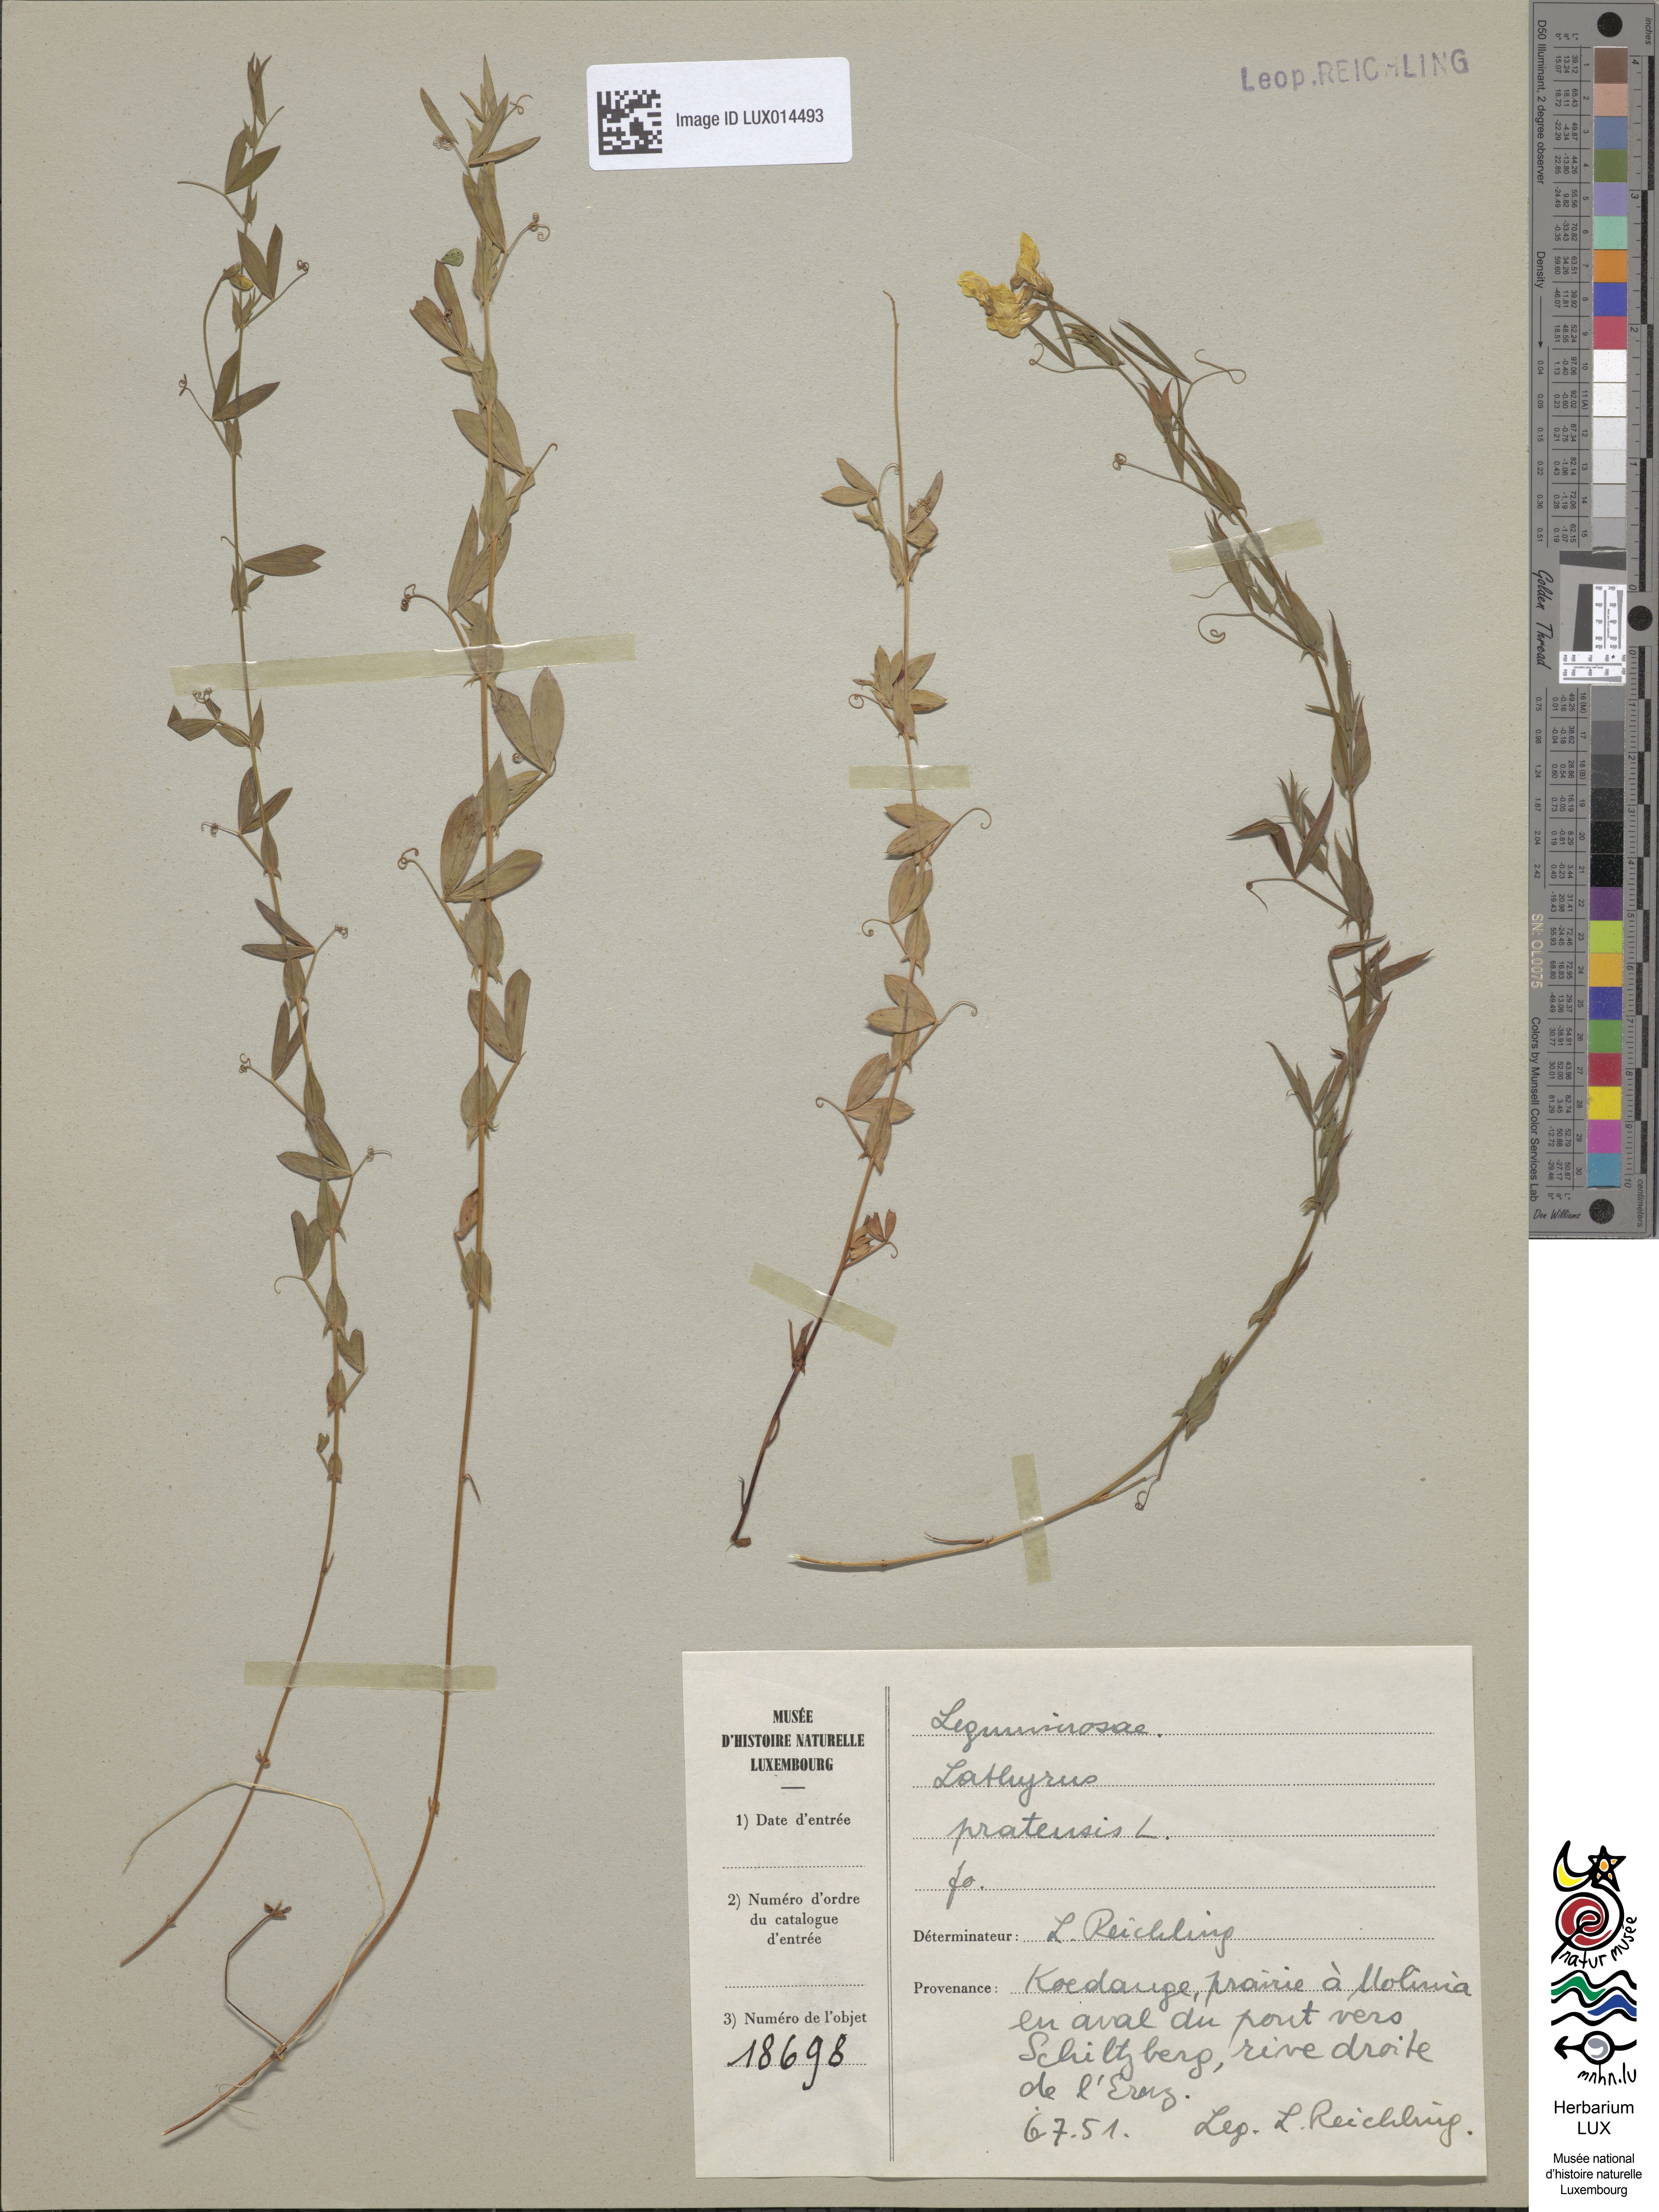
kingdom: Plantae
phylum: Tracheophyta
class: Magnoliopsida
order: Fabales
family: Fabaceae
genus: Lathyrus
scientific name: Lathyrus pratensis
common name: Meadow vetchling
